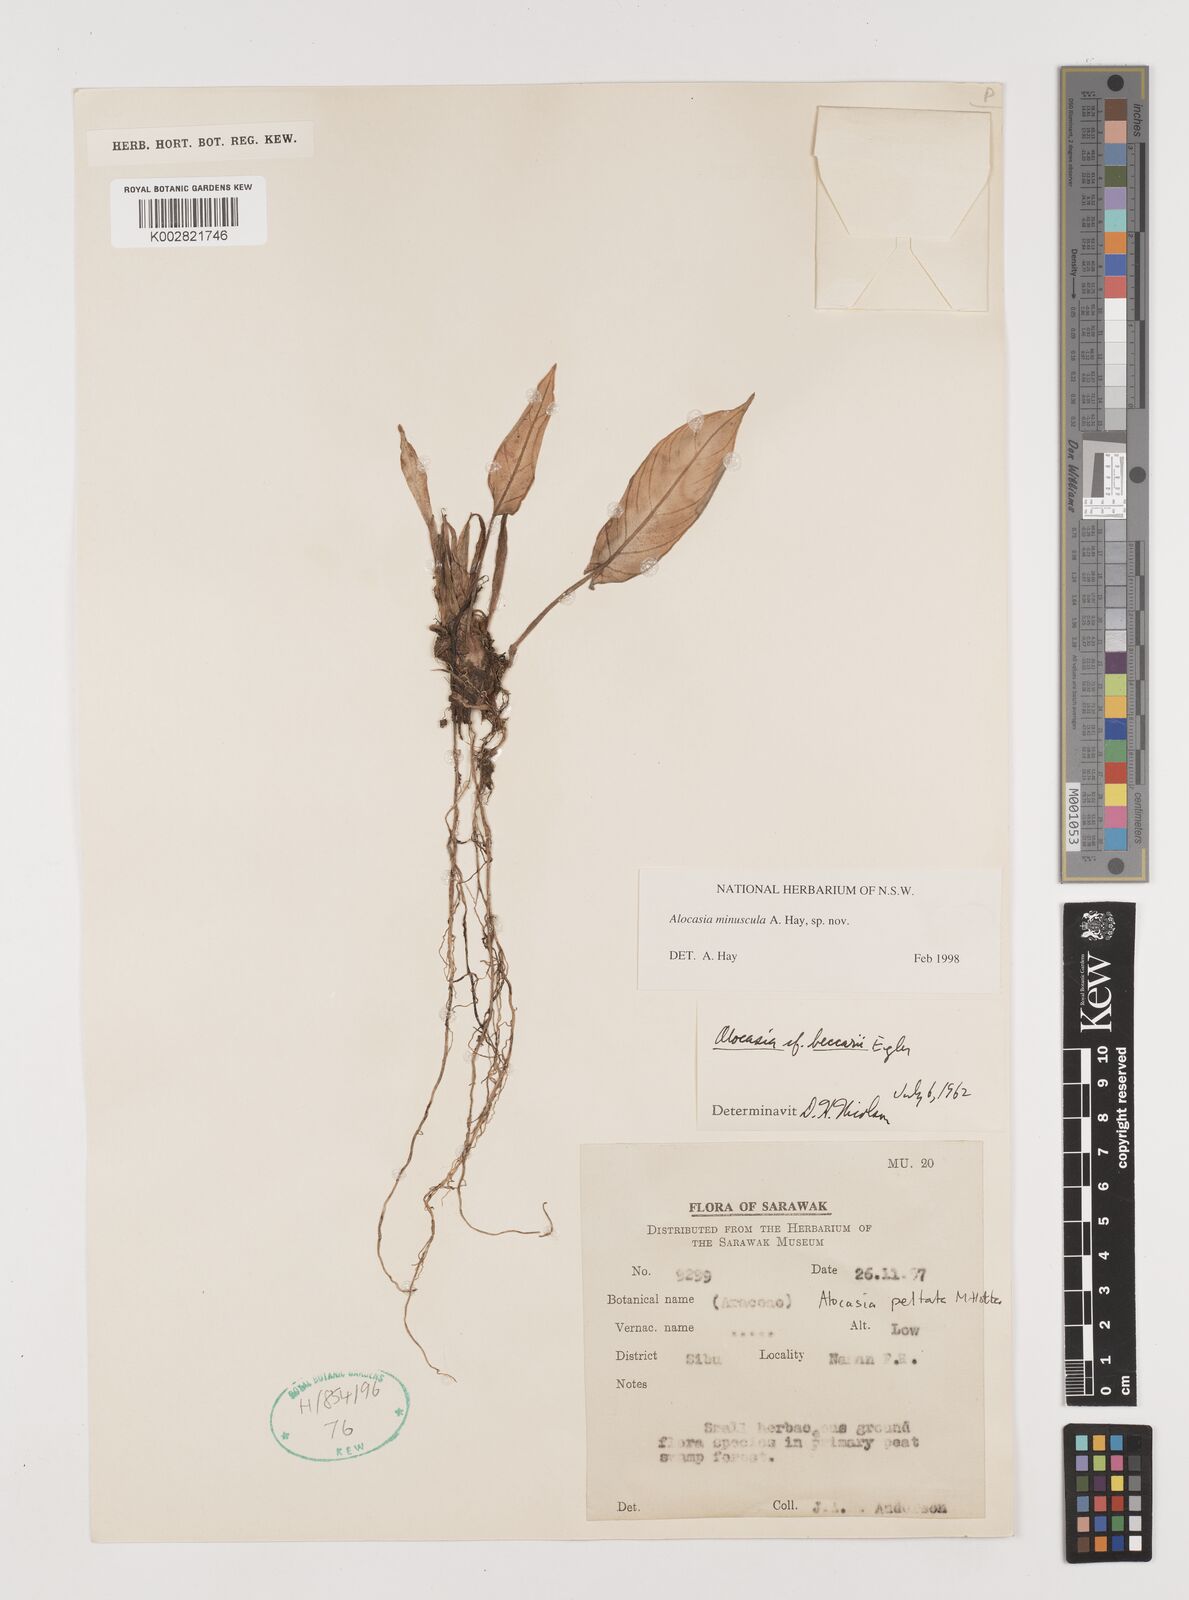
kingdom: Plantae
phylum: Tracheophyta
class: Liliopsida
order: Alismatales
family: Araceae
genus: Alocasia
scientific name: Alocasia miniuscula
